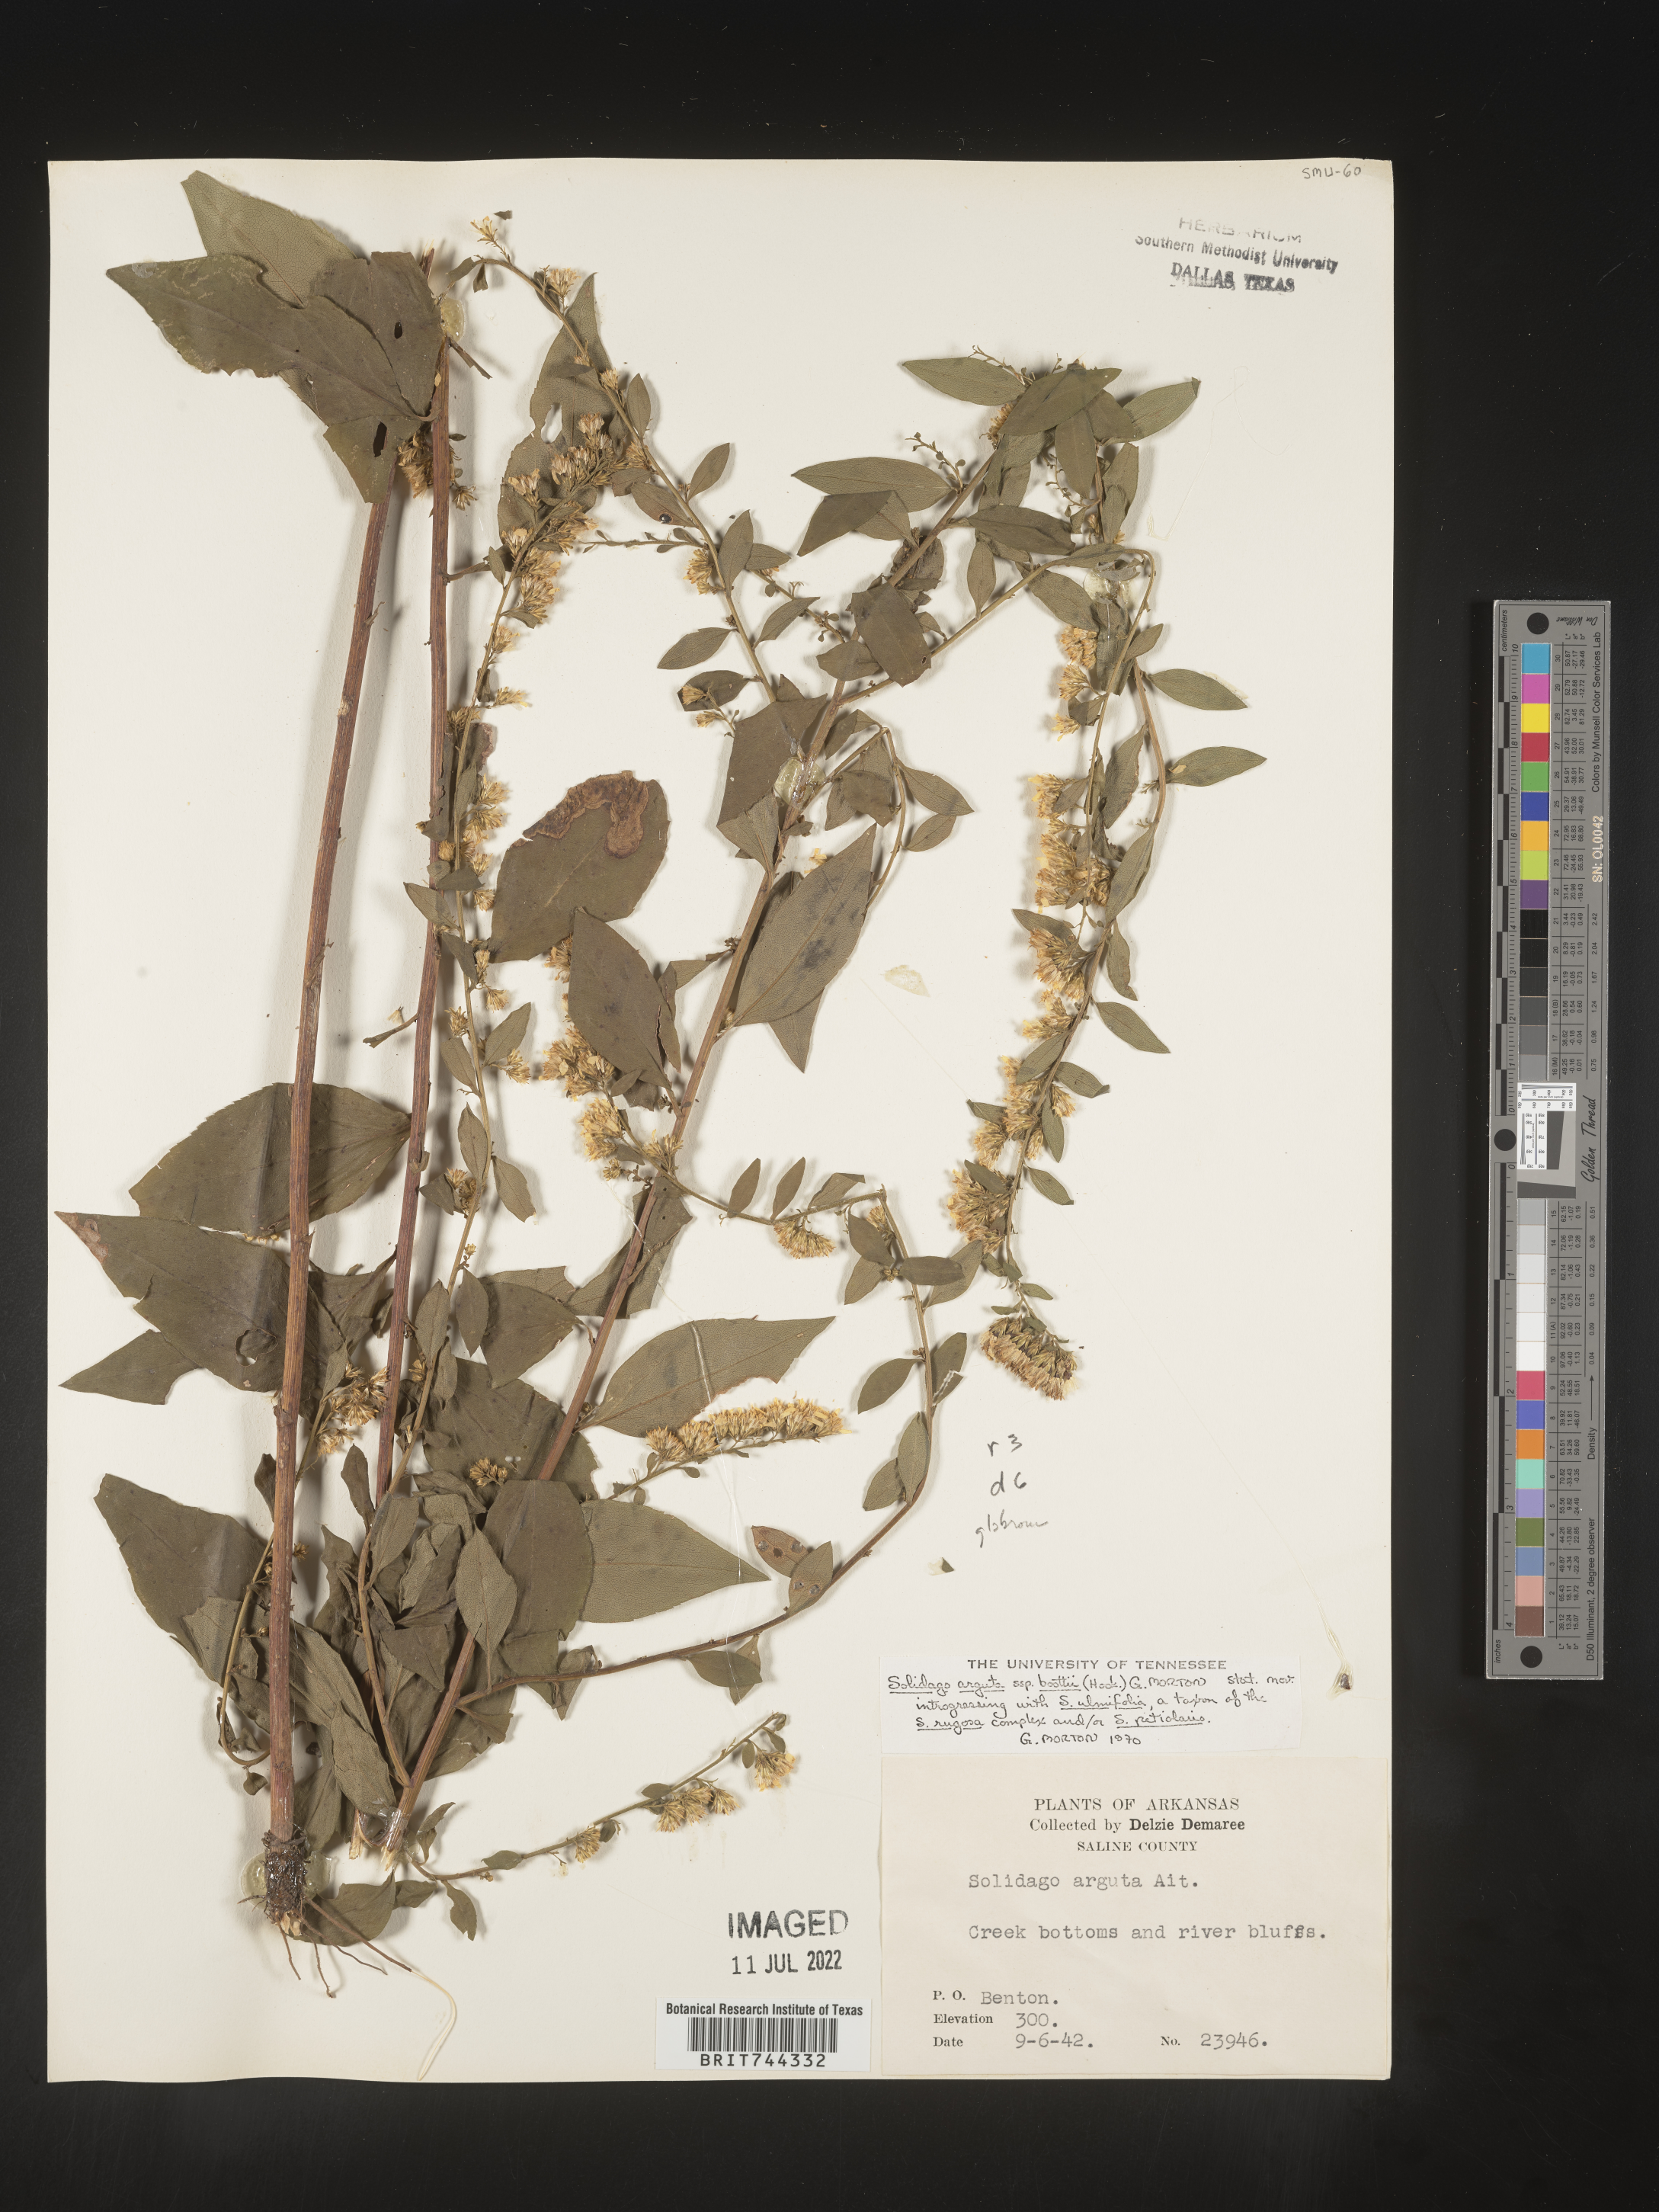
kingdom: Plantae
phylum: Tracheophyta
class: Magnoliopsida
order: Asterales
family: Asteraceae
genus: Solidago
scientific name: Solidago arguta
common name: Atlantic goldenrod
